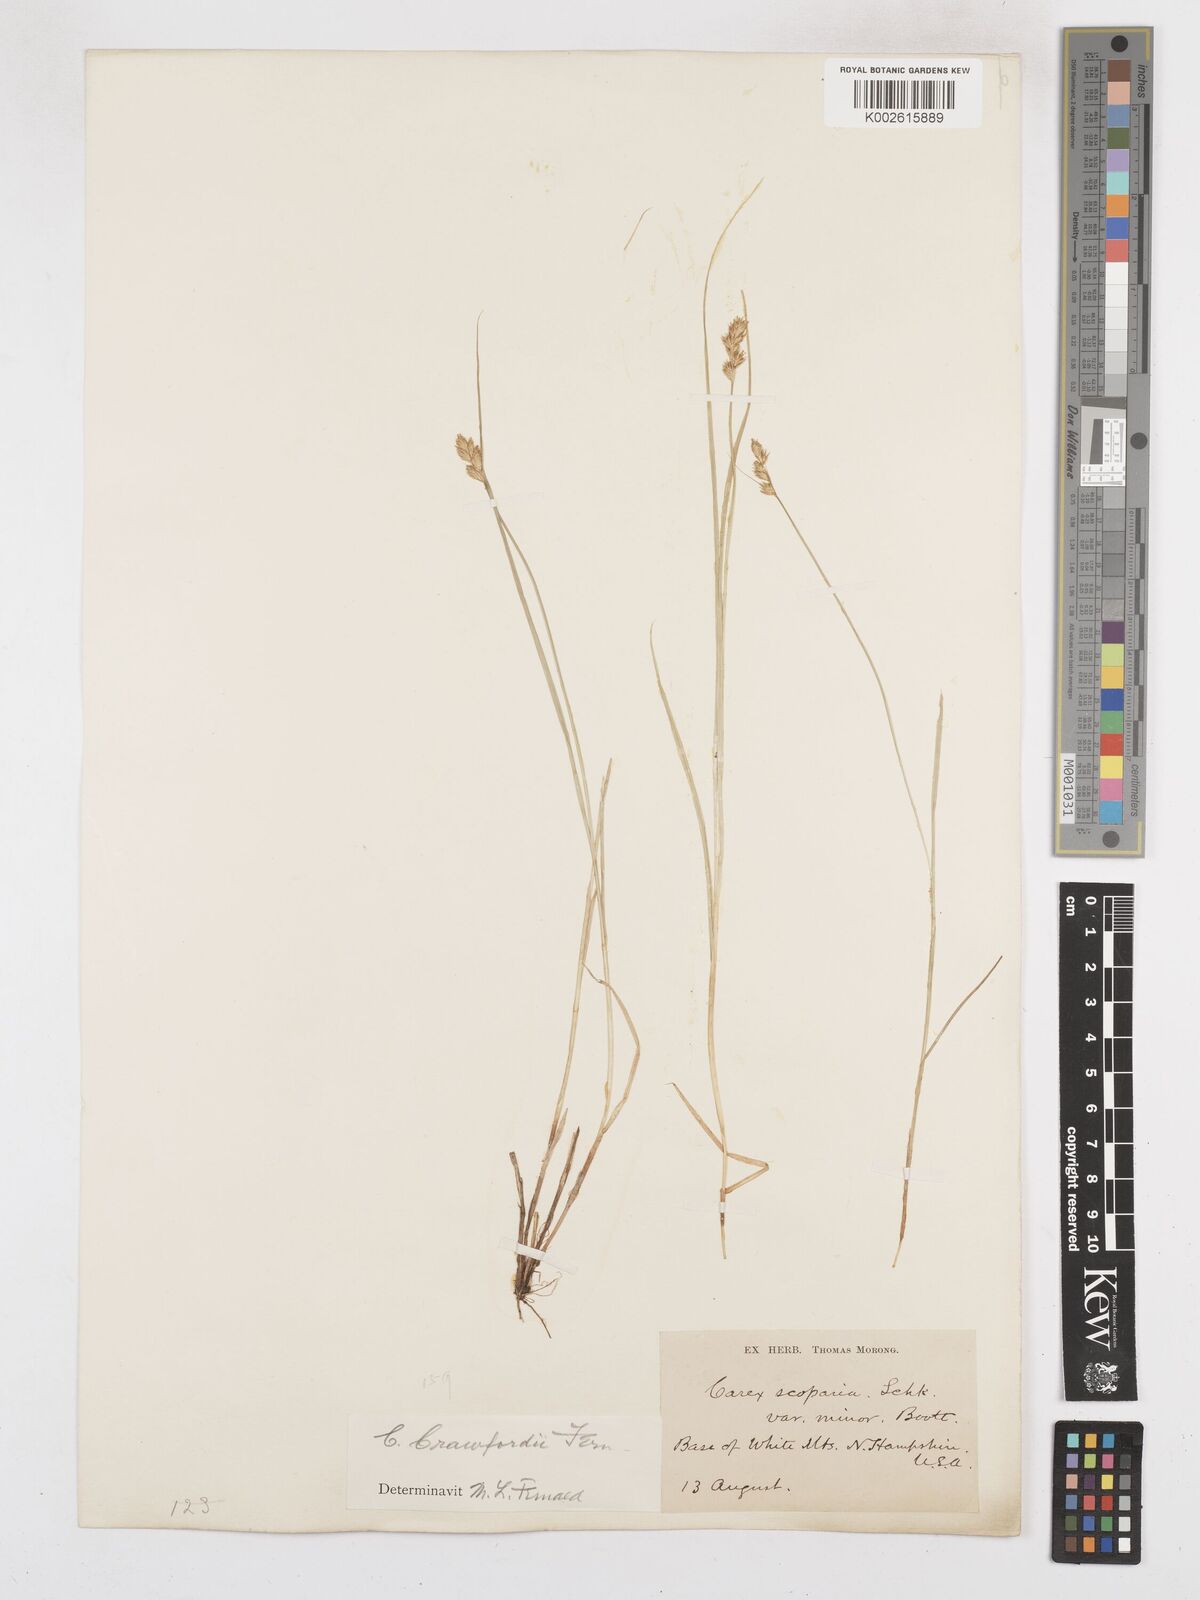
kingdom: Plantae
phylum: Tracheophyta
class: Liliopsida
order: Poales
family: Cyperaceae
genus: Carex
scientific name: Carex crawfordii
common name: Crawford's sedge
